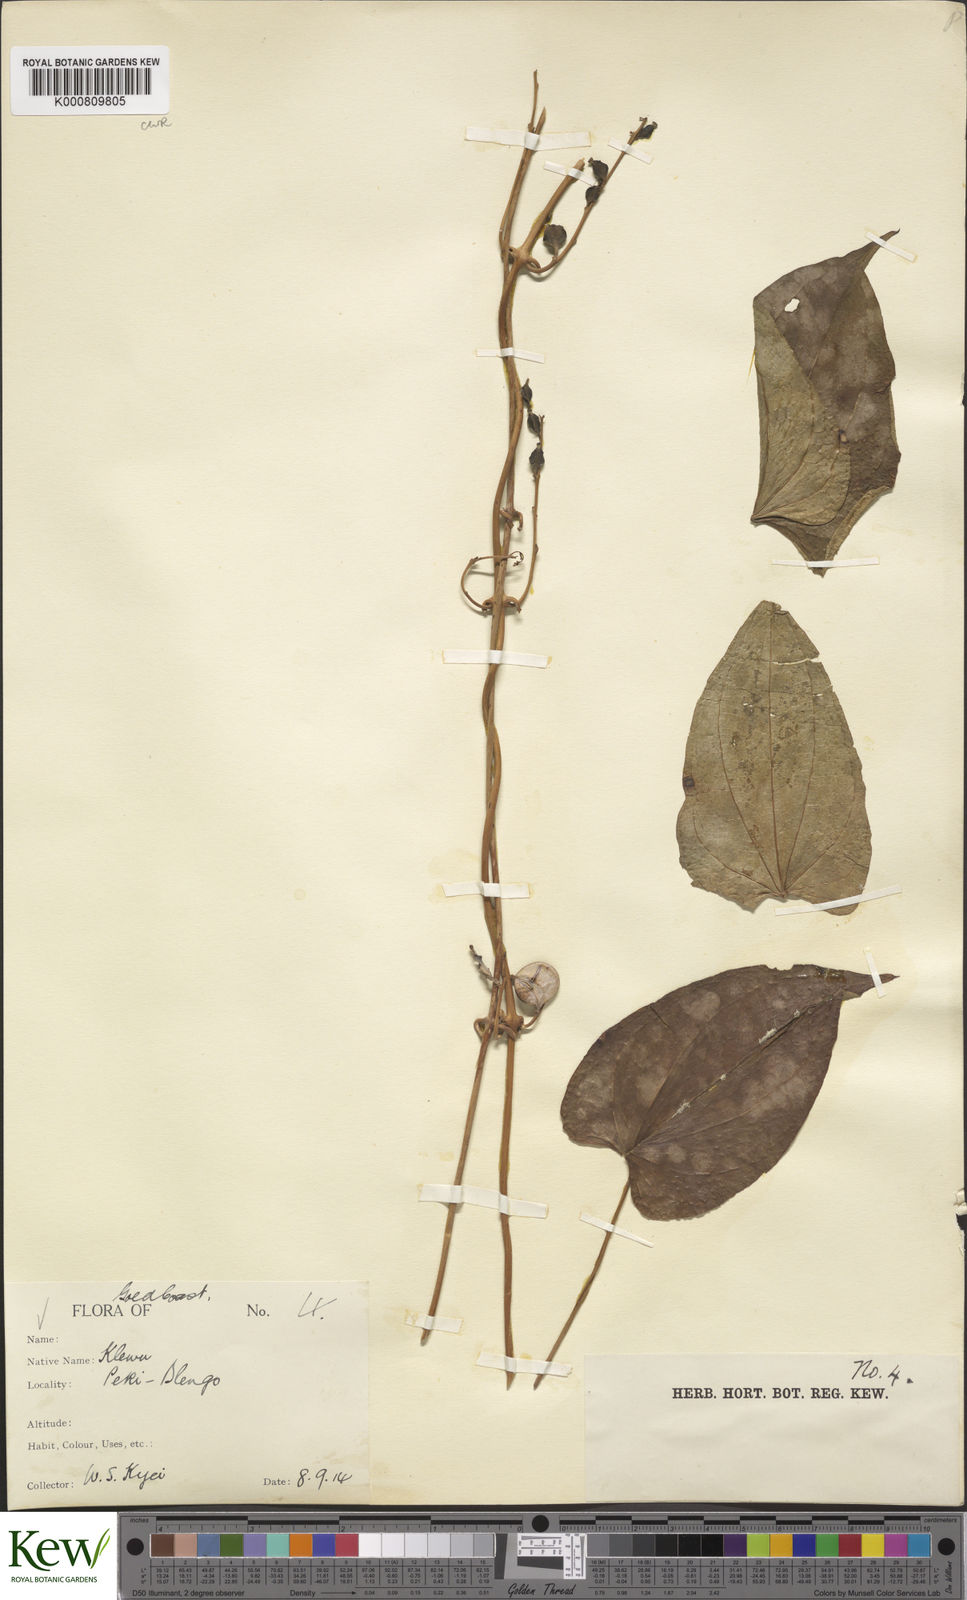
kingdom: Plantae
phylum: Tracheophyta
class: Liliopsida
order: Dioscoreales
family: Dioscoreaceae
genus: Dioscorea
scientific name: Dioscorea cayenensis
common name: Attoto yam
